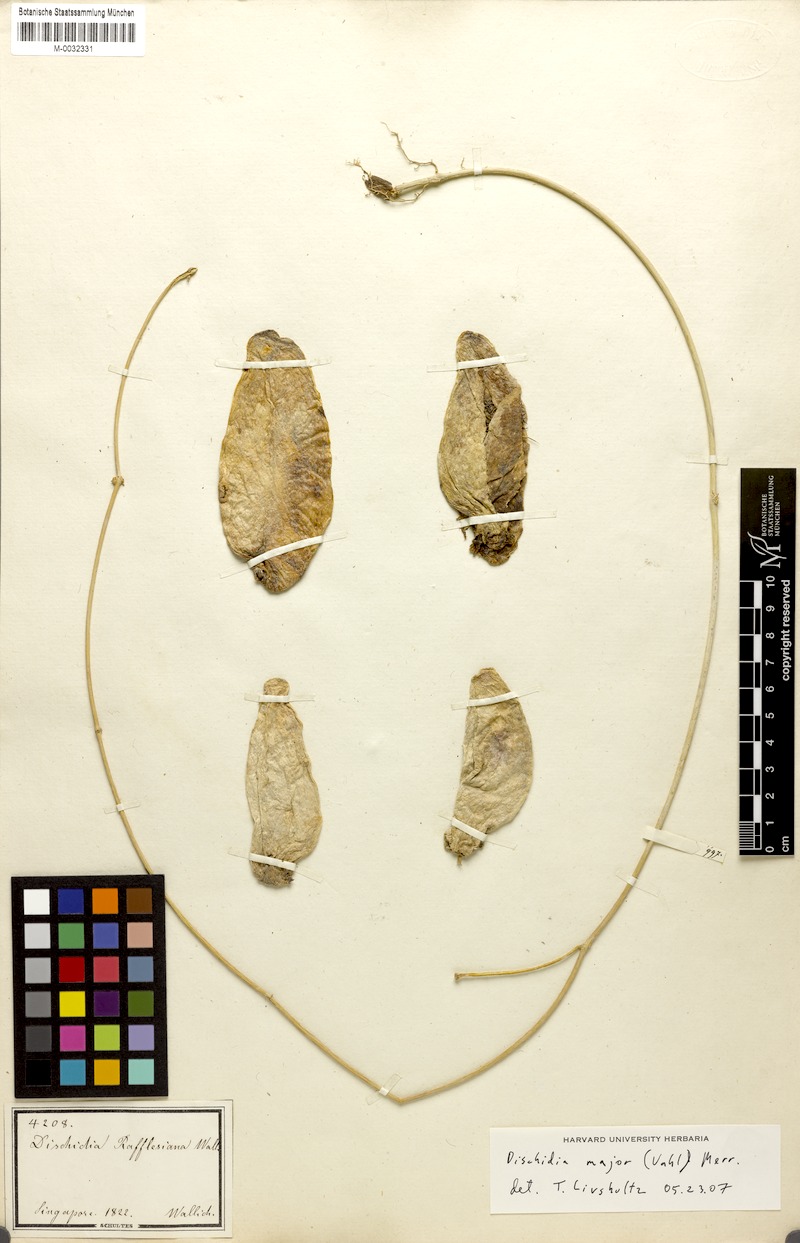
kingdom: Plantae
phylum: Tracheophyta
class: Magnoliopsida
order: Gentianales
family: Apocynaceae
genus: Dischidia
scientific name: Dischidia major
